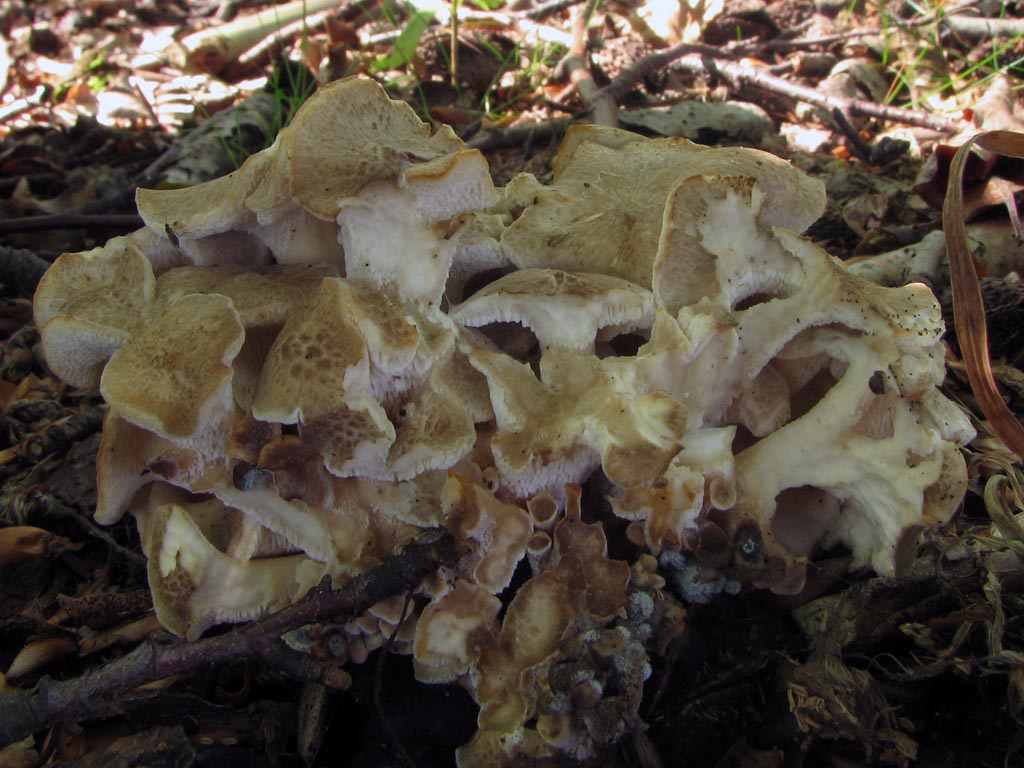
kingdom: Fungi
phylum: Basidiomycota
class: Agaricomycetes
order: Polyporales
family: Polyporaceae
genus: Polyporus
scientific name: Polyporus umbellatus
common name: skærmformet stilkporesvamp
